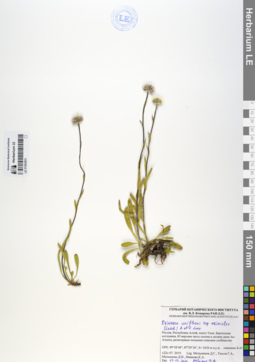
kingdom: Plantae
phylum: Tracheophyta
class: Magnoliopsida
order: Asterales
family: Asteraceae
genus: Erigeron
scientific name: Erigeron eriocalyx
